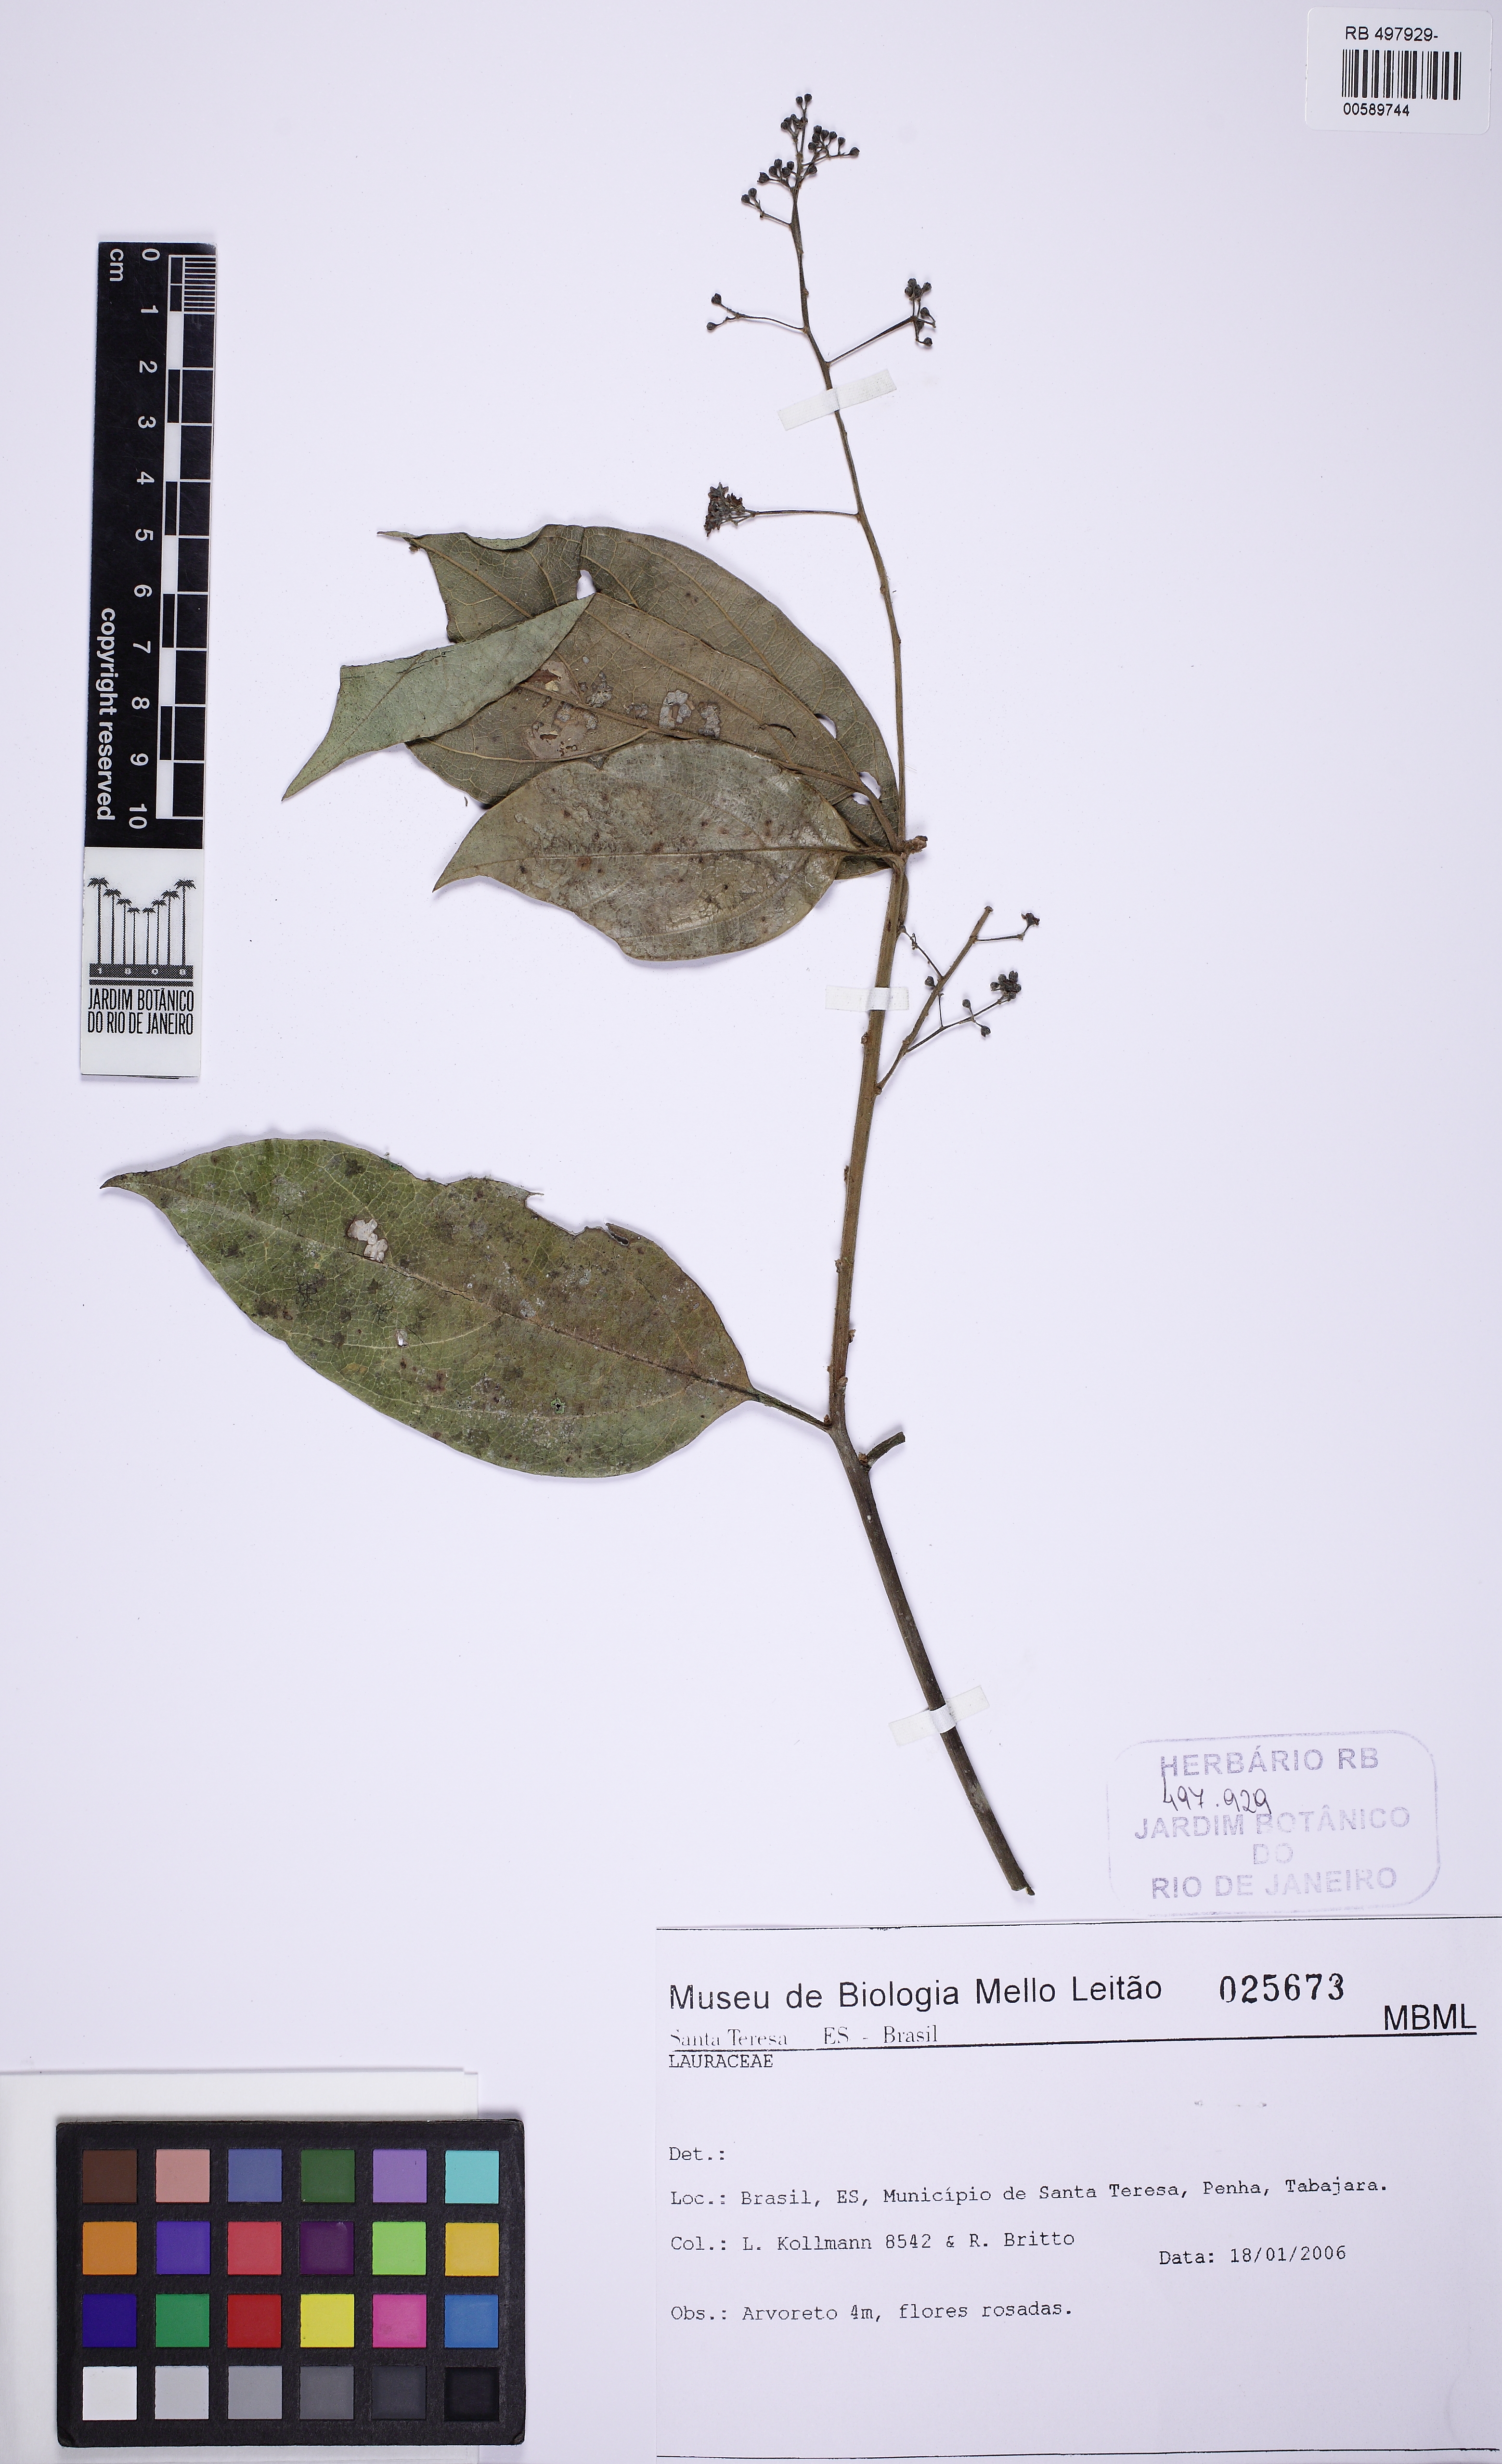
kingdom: Plantae
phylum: Tracheophyta
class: Magnoliopsida
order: Laurales
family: Lauraceae
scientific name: Lauraceae
